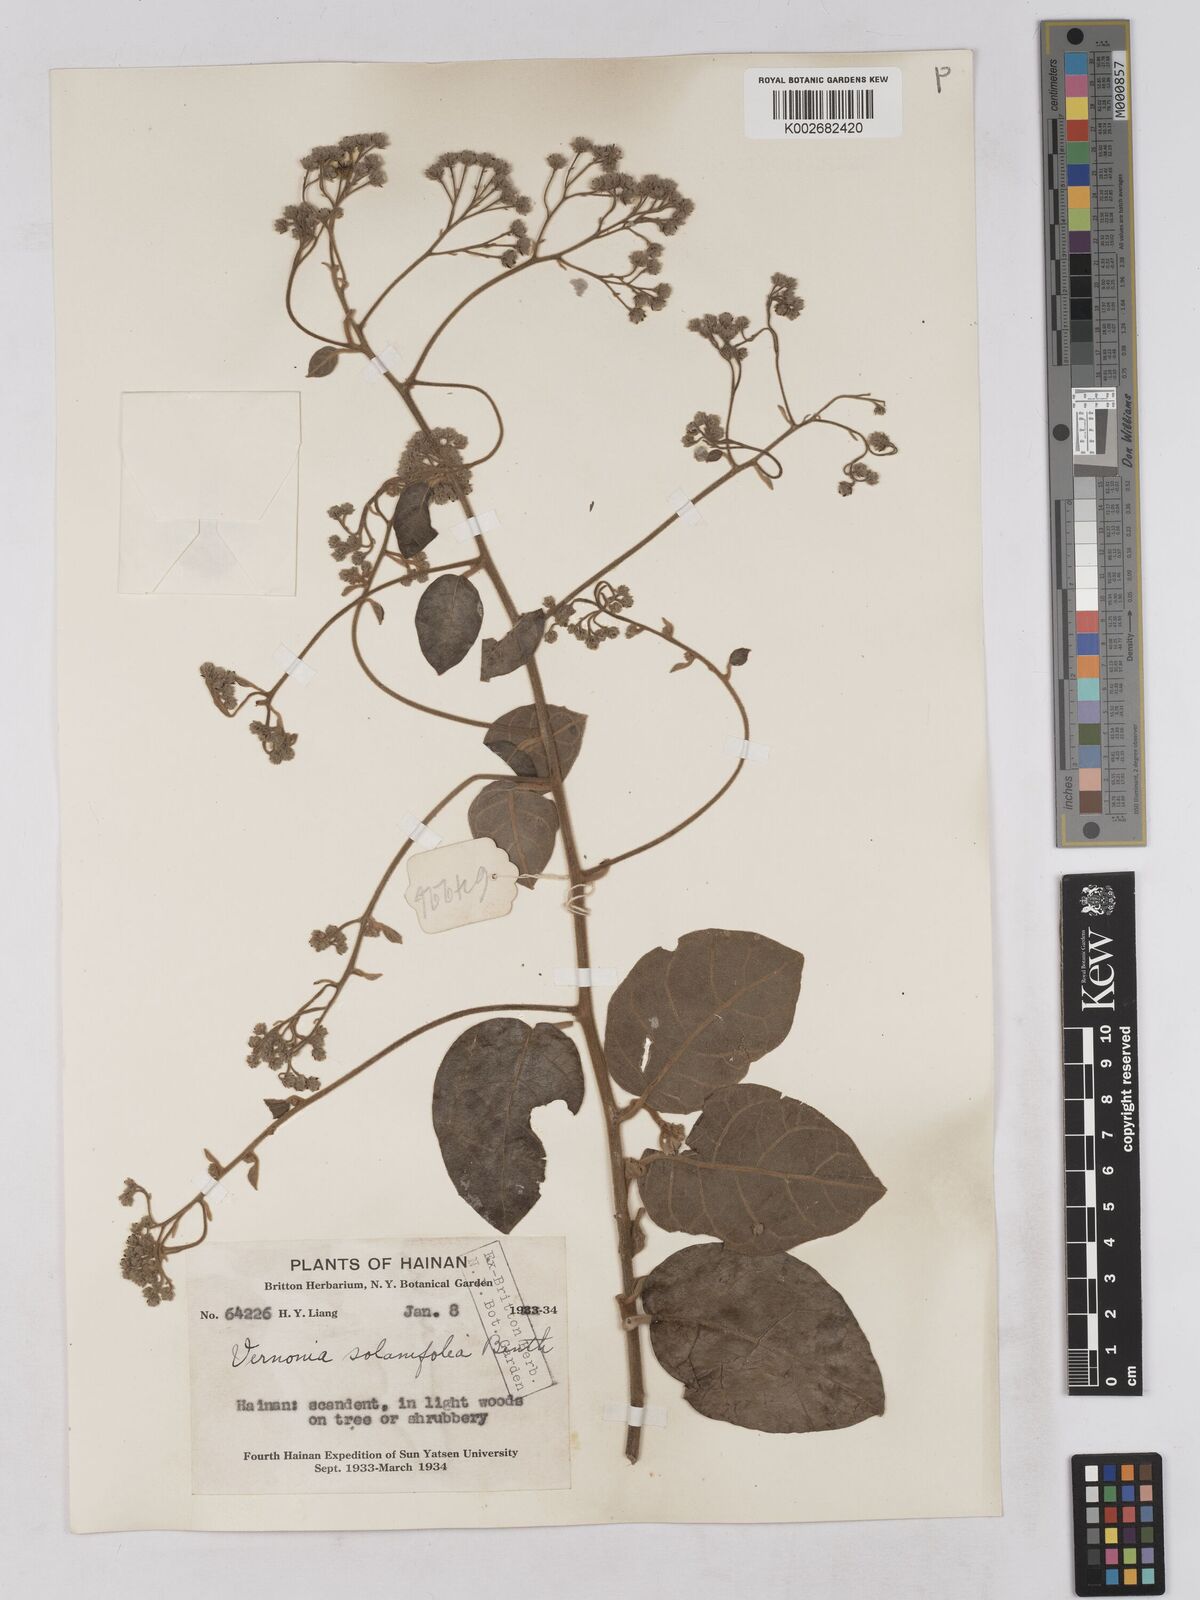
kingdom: Plantae
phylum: Tracheophyta
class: Magnoliopsida
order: Asterales
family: Asteraceae
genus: Strobocalyx
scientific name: Strobocalyx solanifolia
